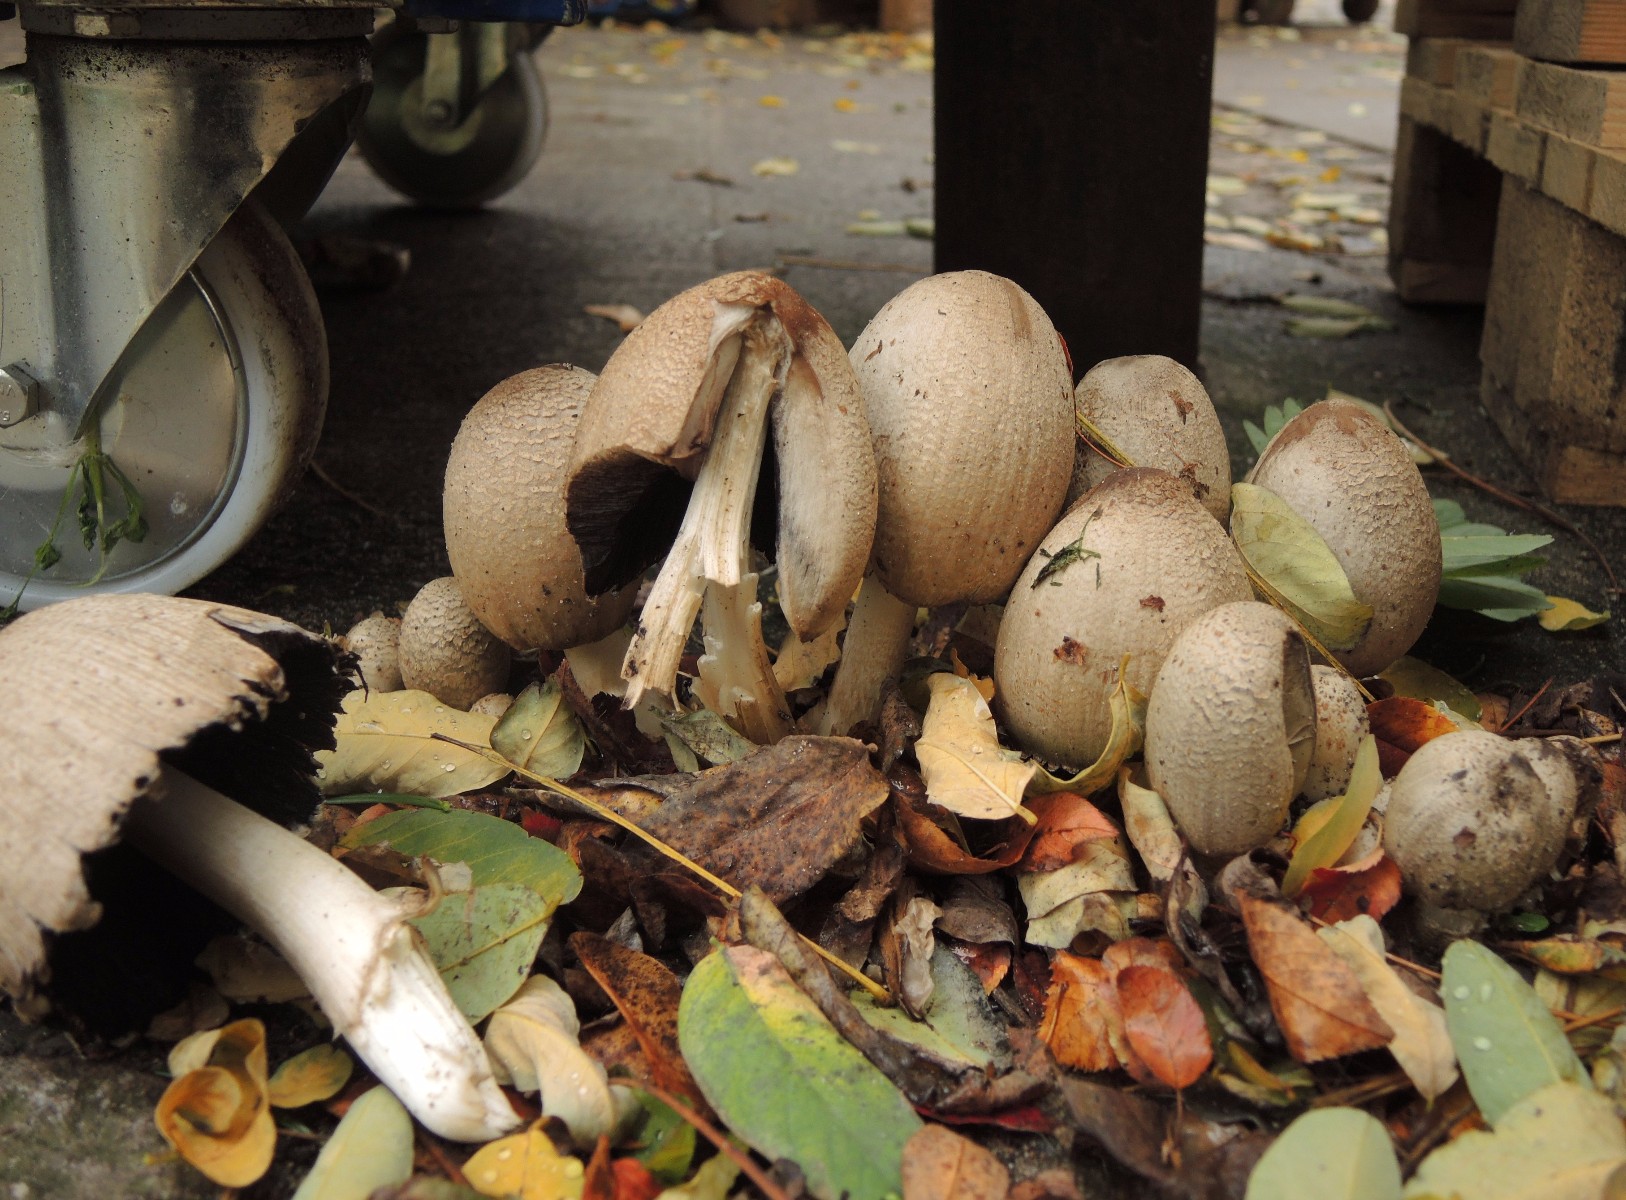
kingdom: Fungi
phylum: Basidiomycota
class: Agaricomycetes
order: Agaricales
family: Psathyrellaceae
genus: Coprinopsis
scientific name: Coprinopsis romagnesiana
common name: brunskællet blækhat
